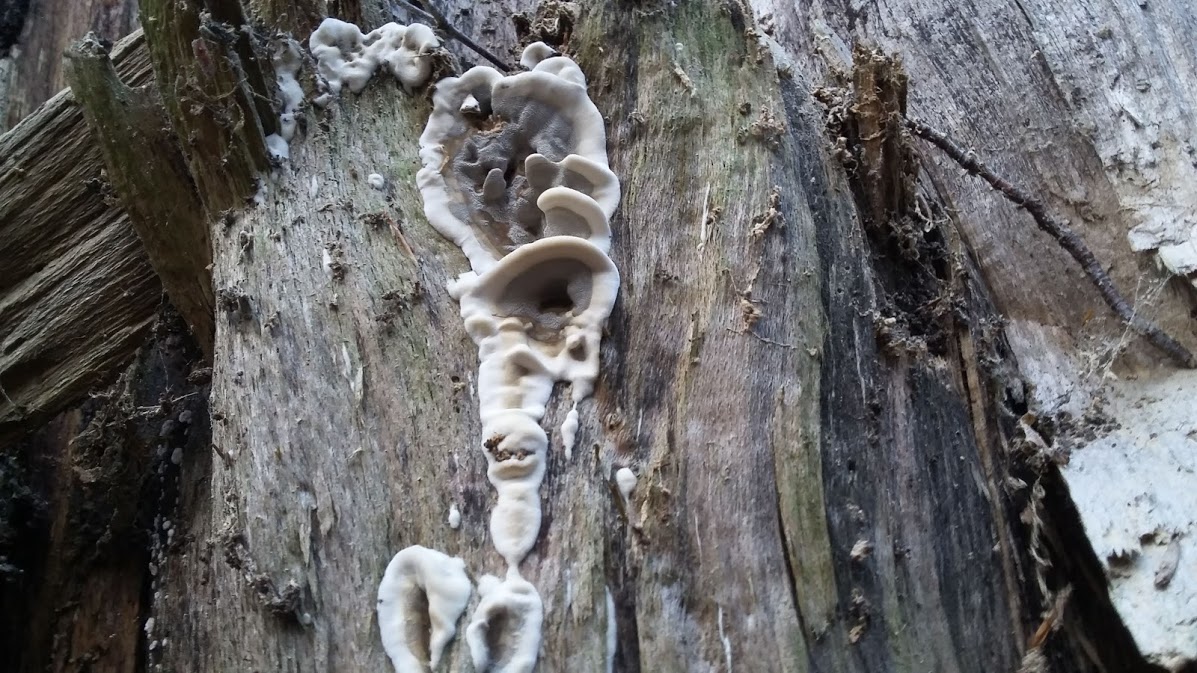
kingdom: Fungi
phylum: Basidiomycota
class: Agaricomycetes
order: Polyporales
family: Phanerochaetaceae
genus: Bjerkandera
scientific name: Bjerkandera adusta
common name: sveden sodporesvamp
